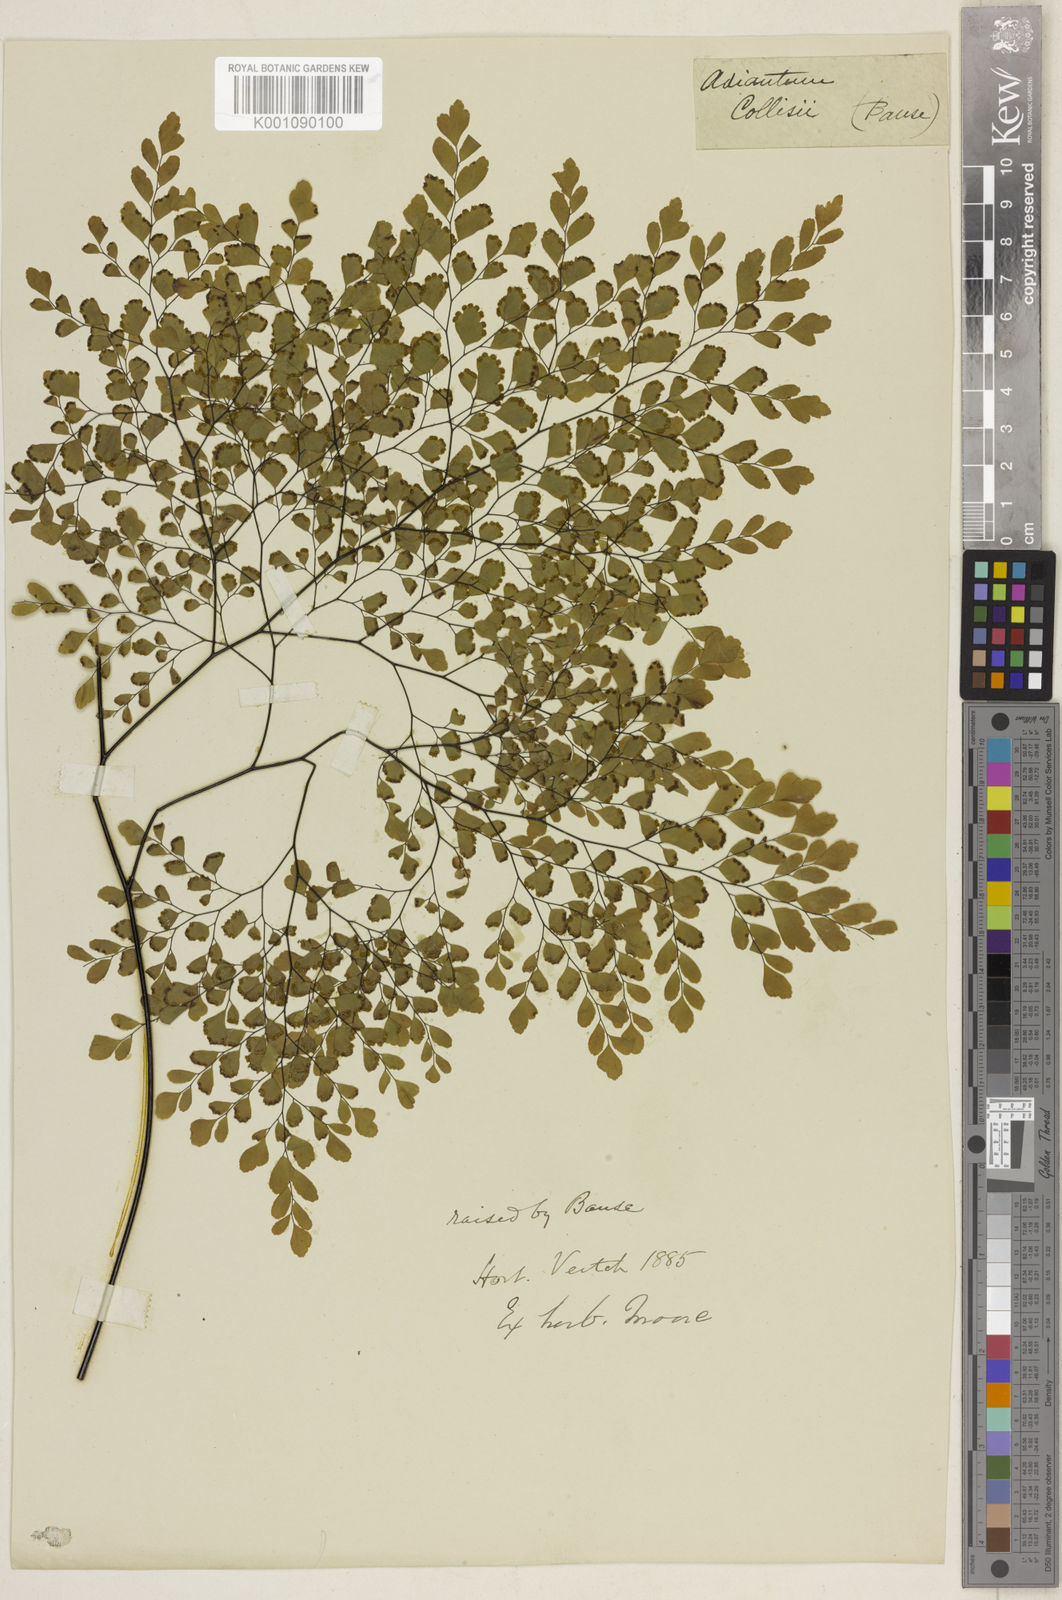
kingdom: Plantae
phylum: Tracheophyta
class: Polypodiopsida
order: Polypodiales
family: Pteridaceae
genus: Adiantum
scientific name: Adiantum tenerum
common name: Fan maidenhair
